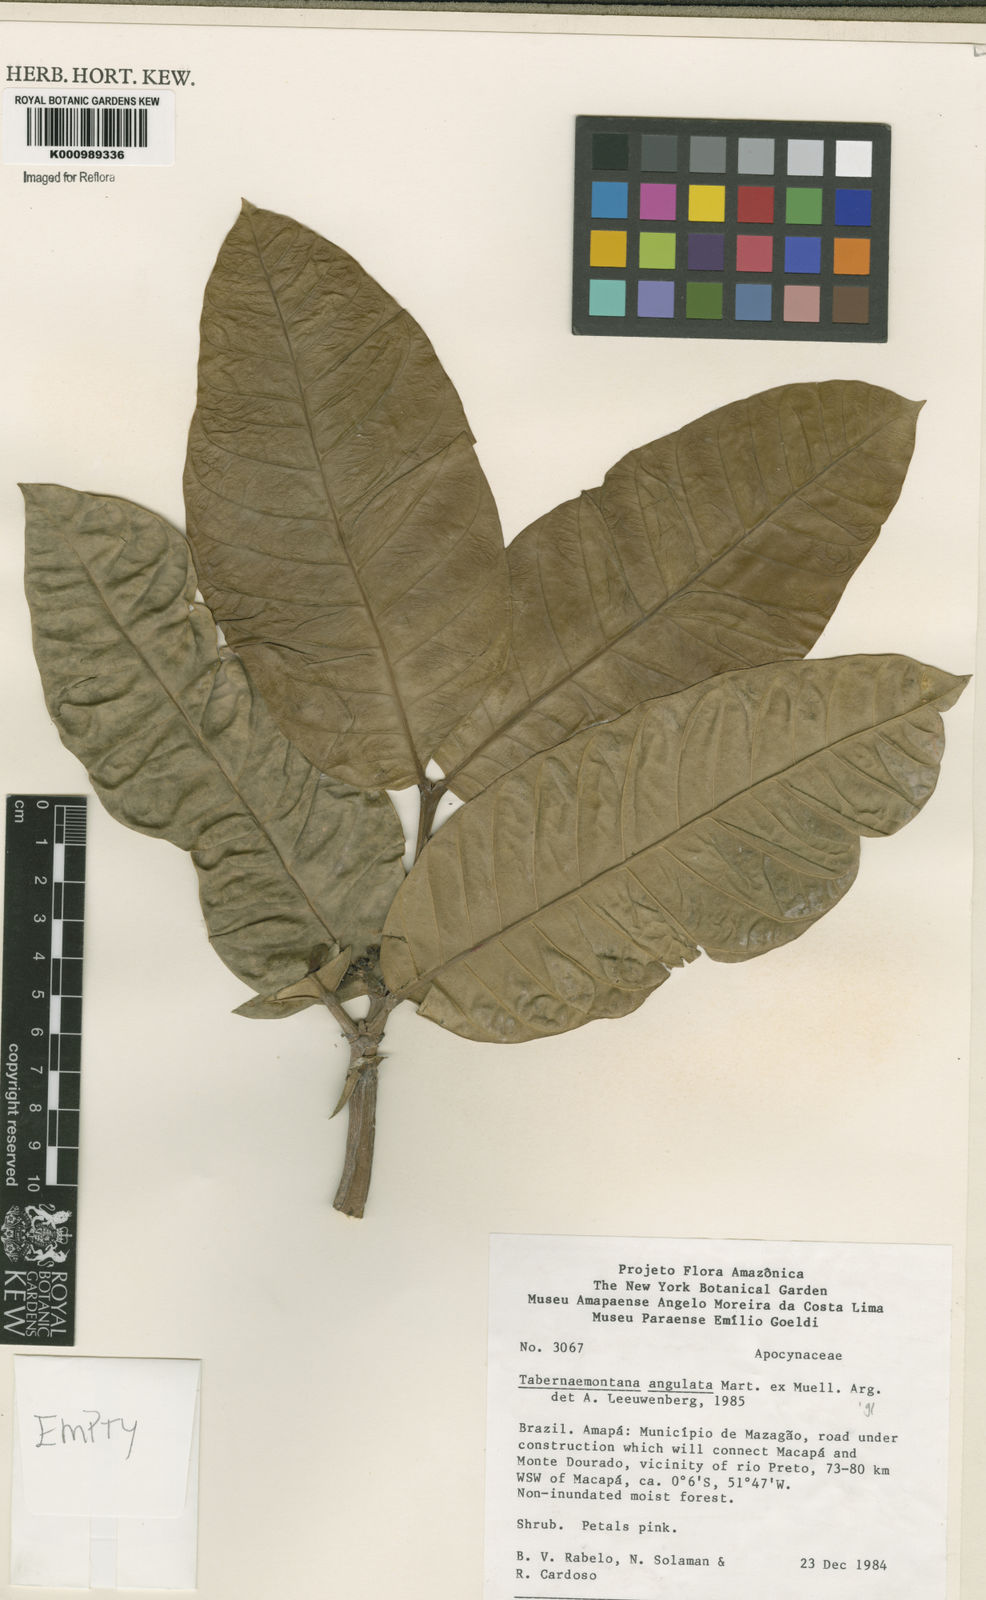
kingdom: Plantae
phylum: Tracheophyta
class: Magnoliopsida
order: Gentianales
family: Apocynaceae
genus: Tabernaemontana
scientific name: Tabernaemontana
